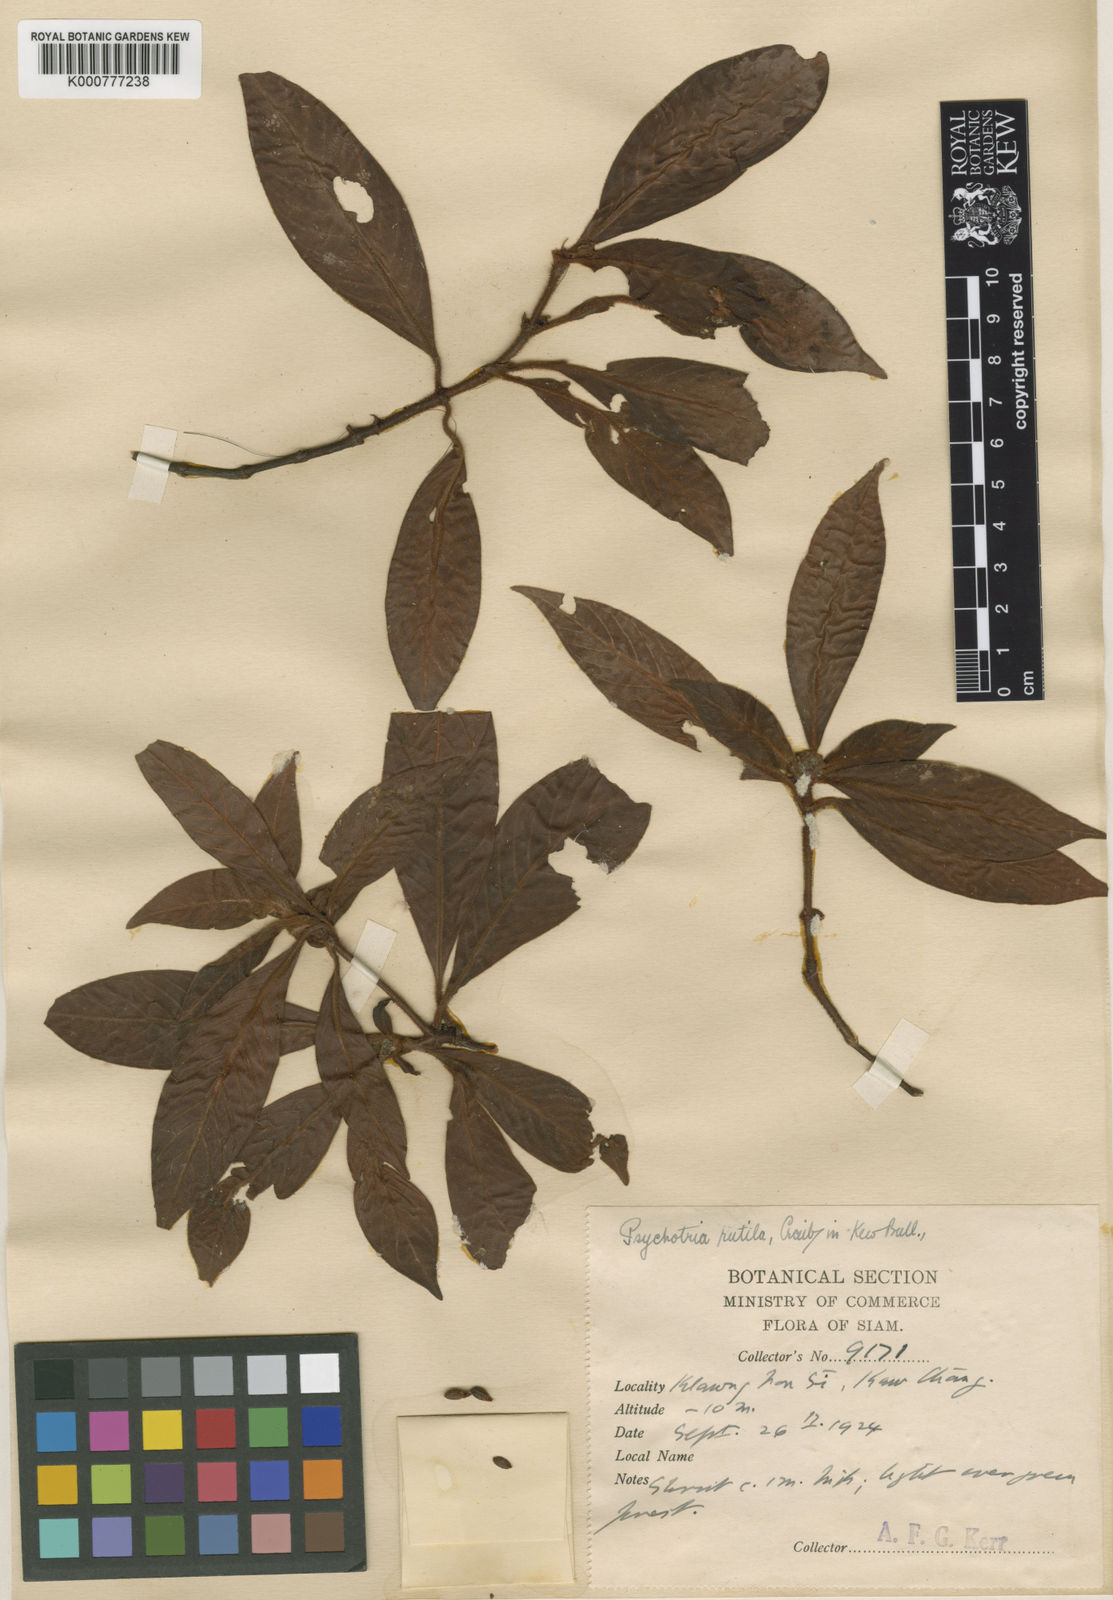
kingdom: Plantae
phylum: Tracheophyta
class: Magnoliopsida
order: Gentianales
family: Rubiaceae
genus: Psychotria
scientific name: Psychotria rutila
